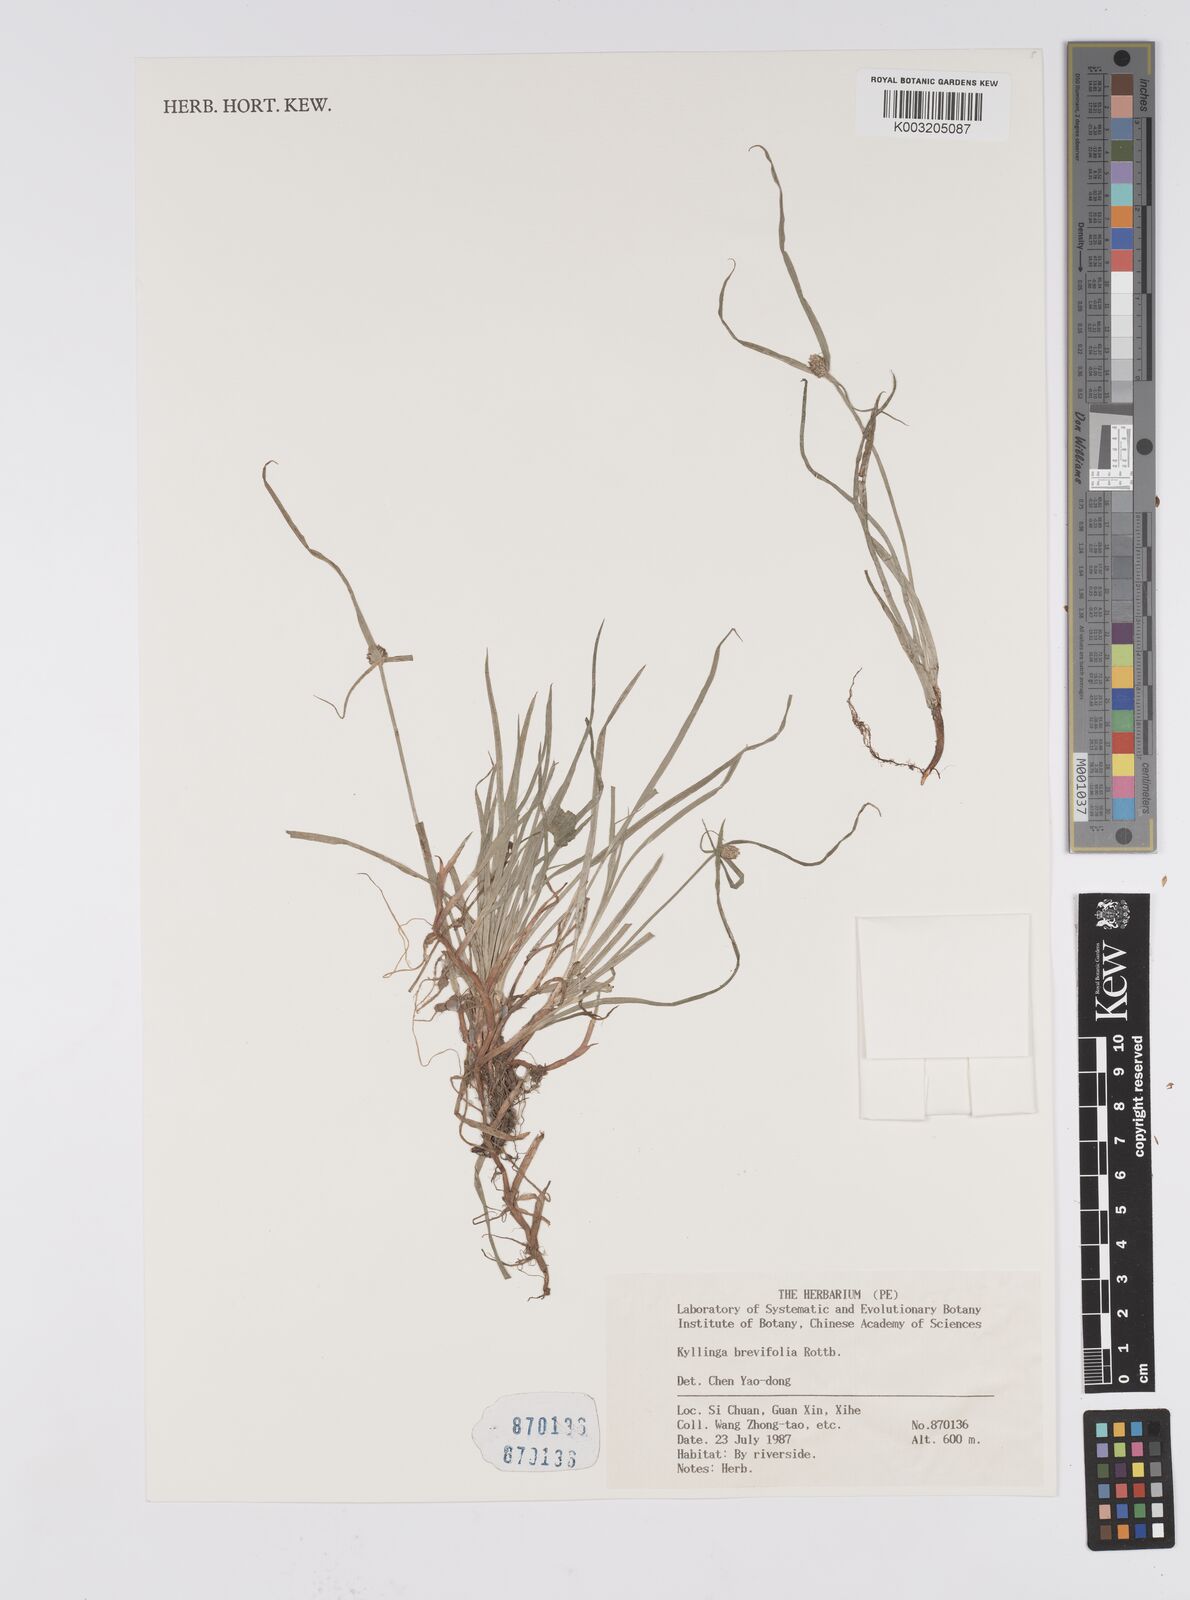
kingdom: Plantae
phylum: Tracheophyta
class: Liliopsida
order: Poales
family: Cyperaceae
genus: Cyperus
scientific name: Cyperus brevifolius
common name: Globe kyllinga
